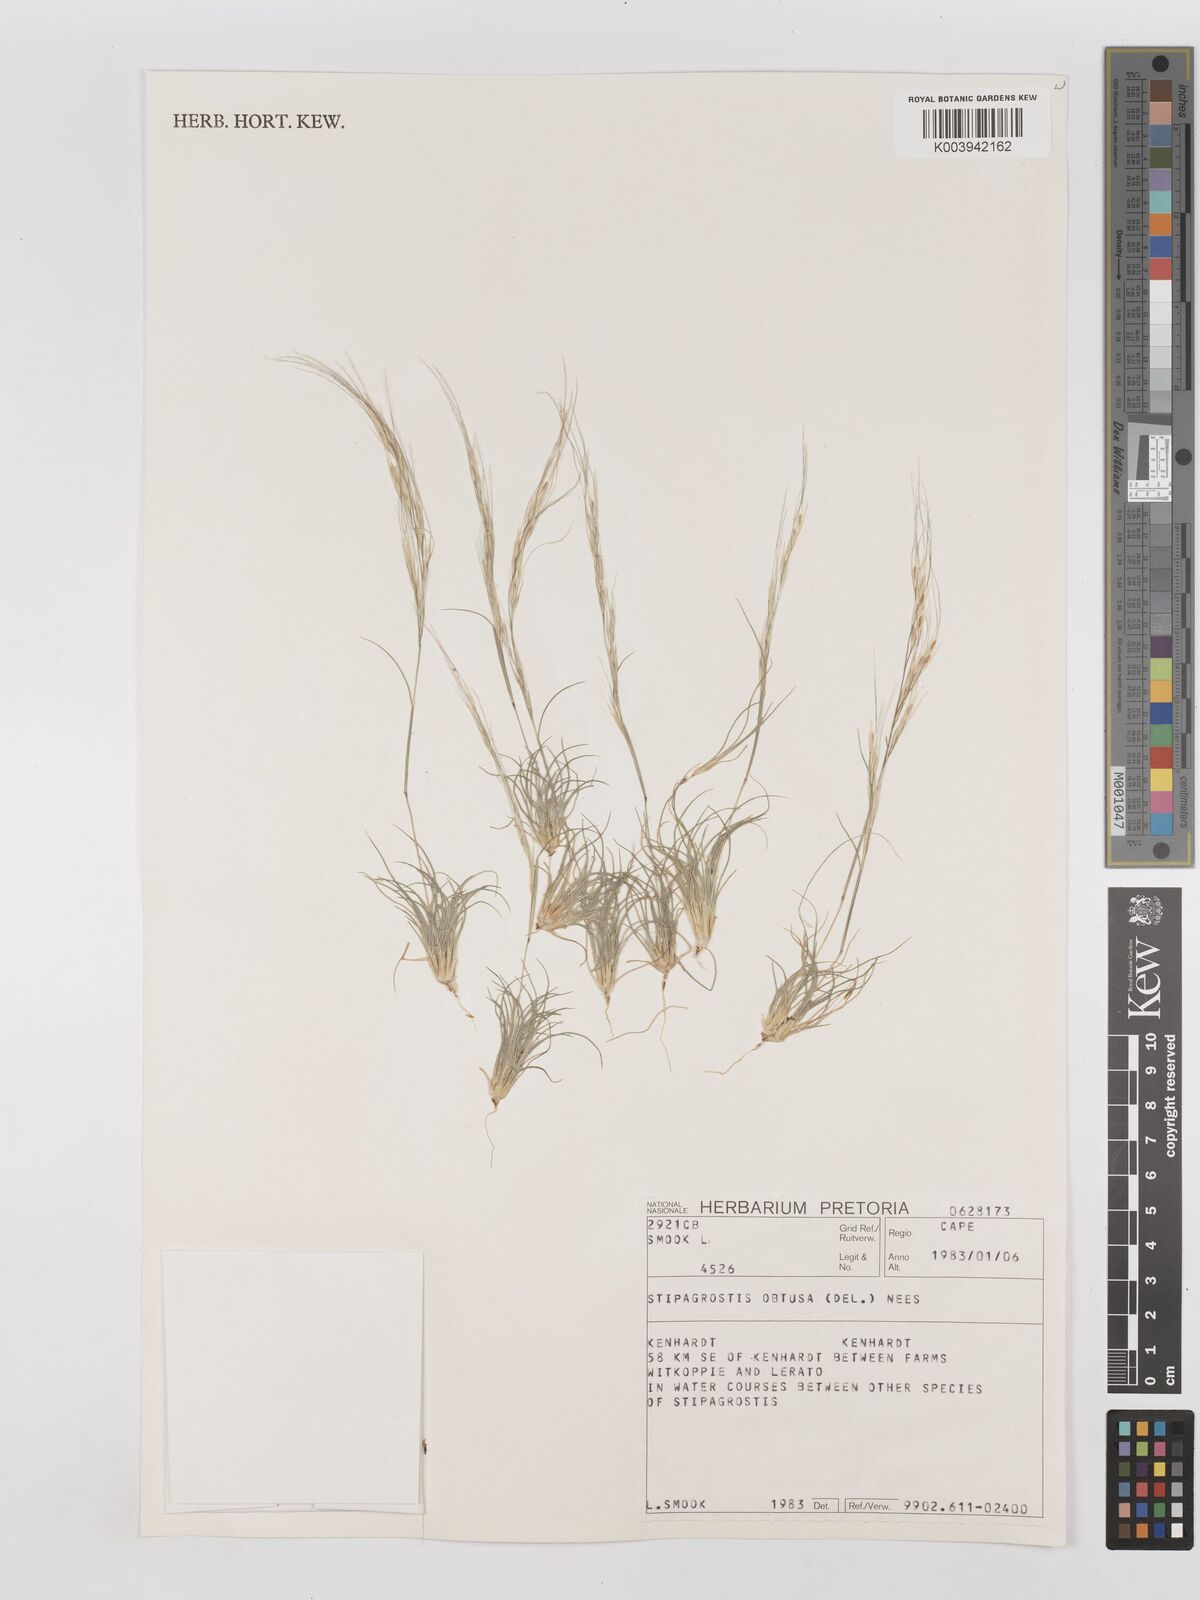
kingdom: Plantae
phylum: Tracheophyta
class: Liliopsida
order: Poales
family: Poaceae
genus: Stipagrostis
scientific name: Stipagrostis obtusa
